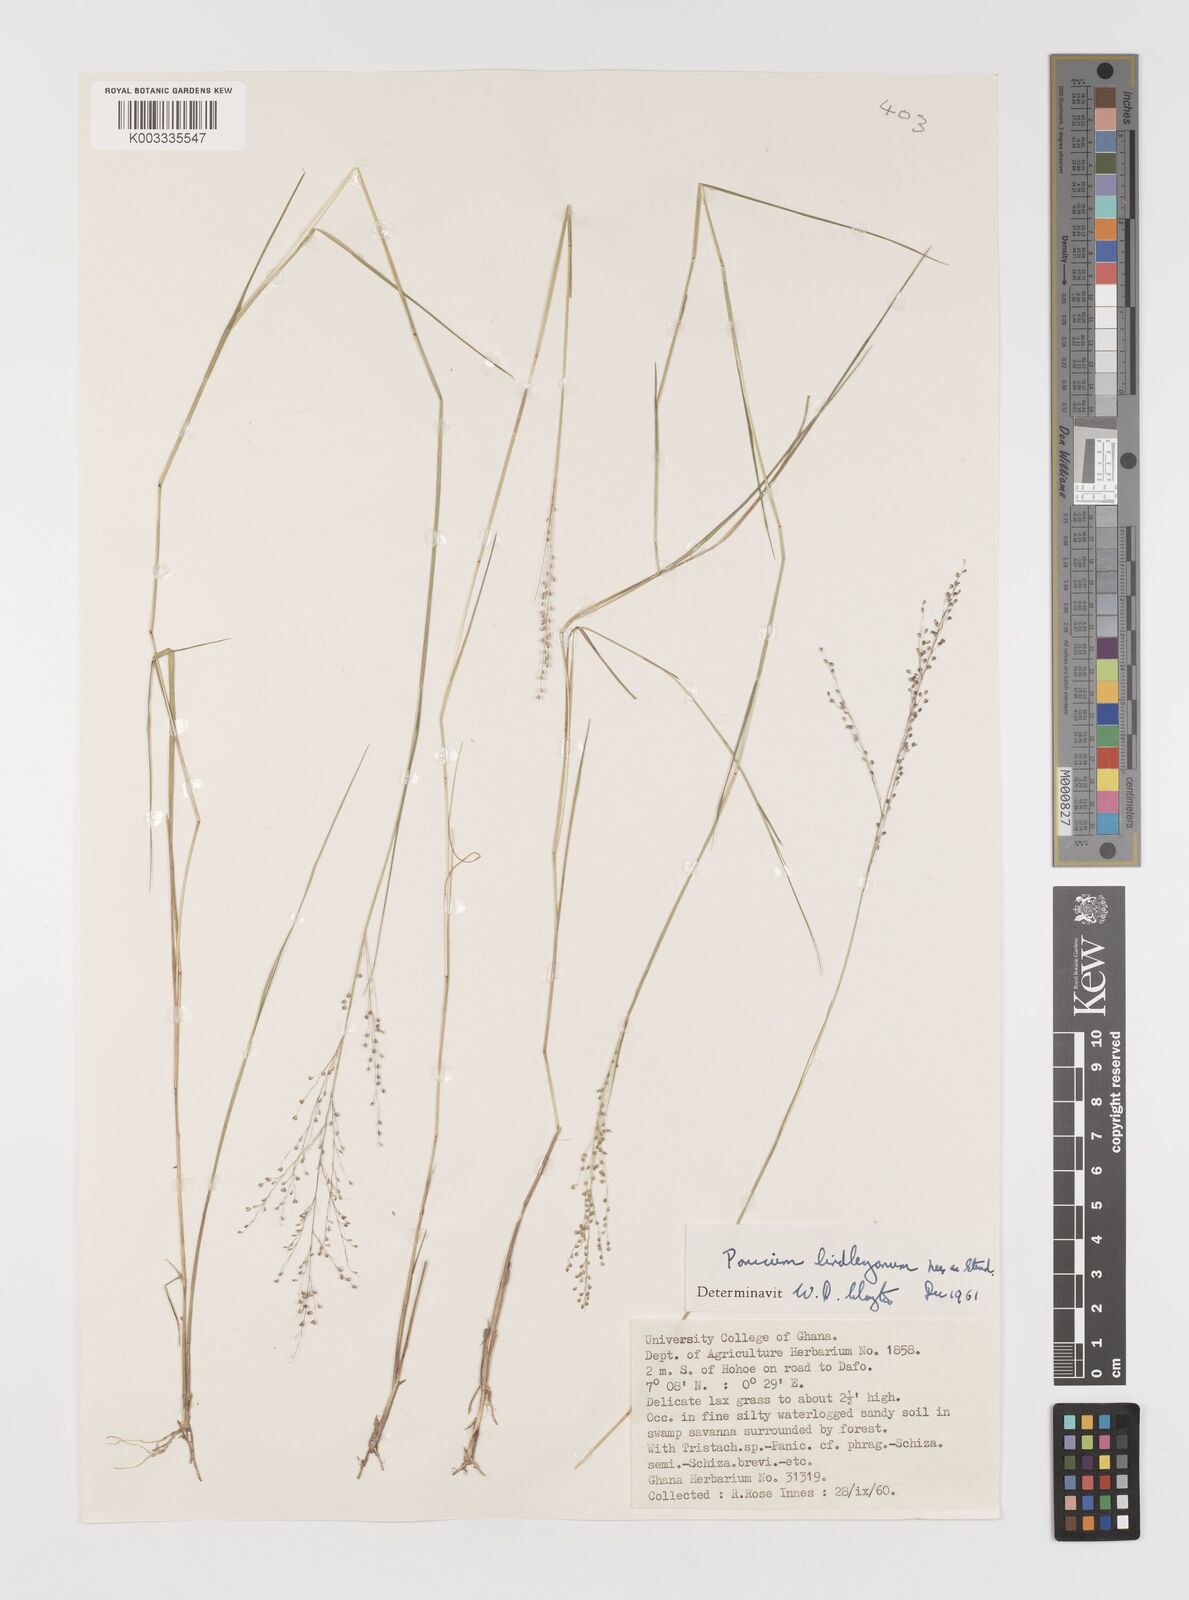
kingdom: Plantae
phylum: Tracheophyta
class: Liliopsida
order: Poales
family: Poaceae
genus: Trichanthecium
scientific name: Trichanthecium tenellum
